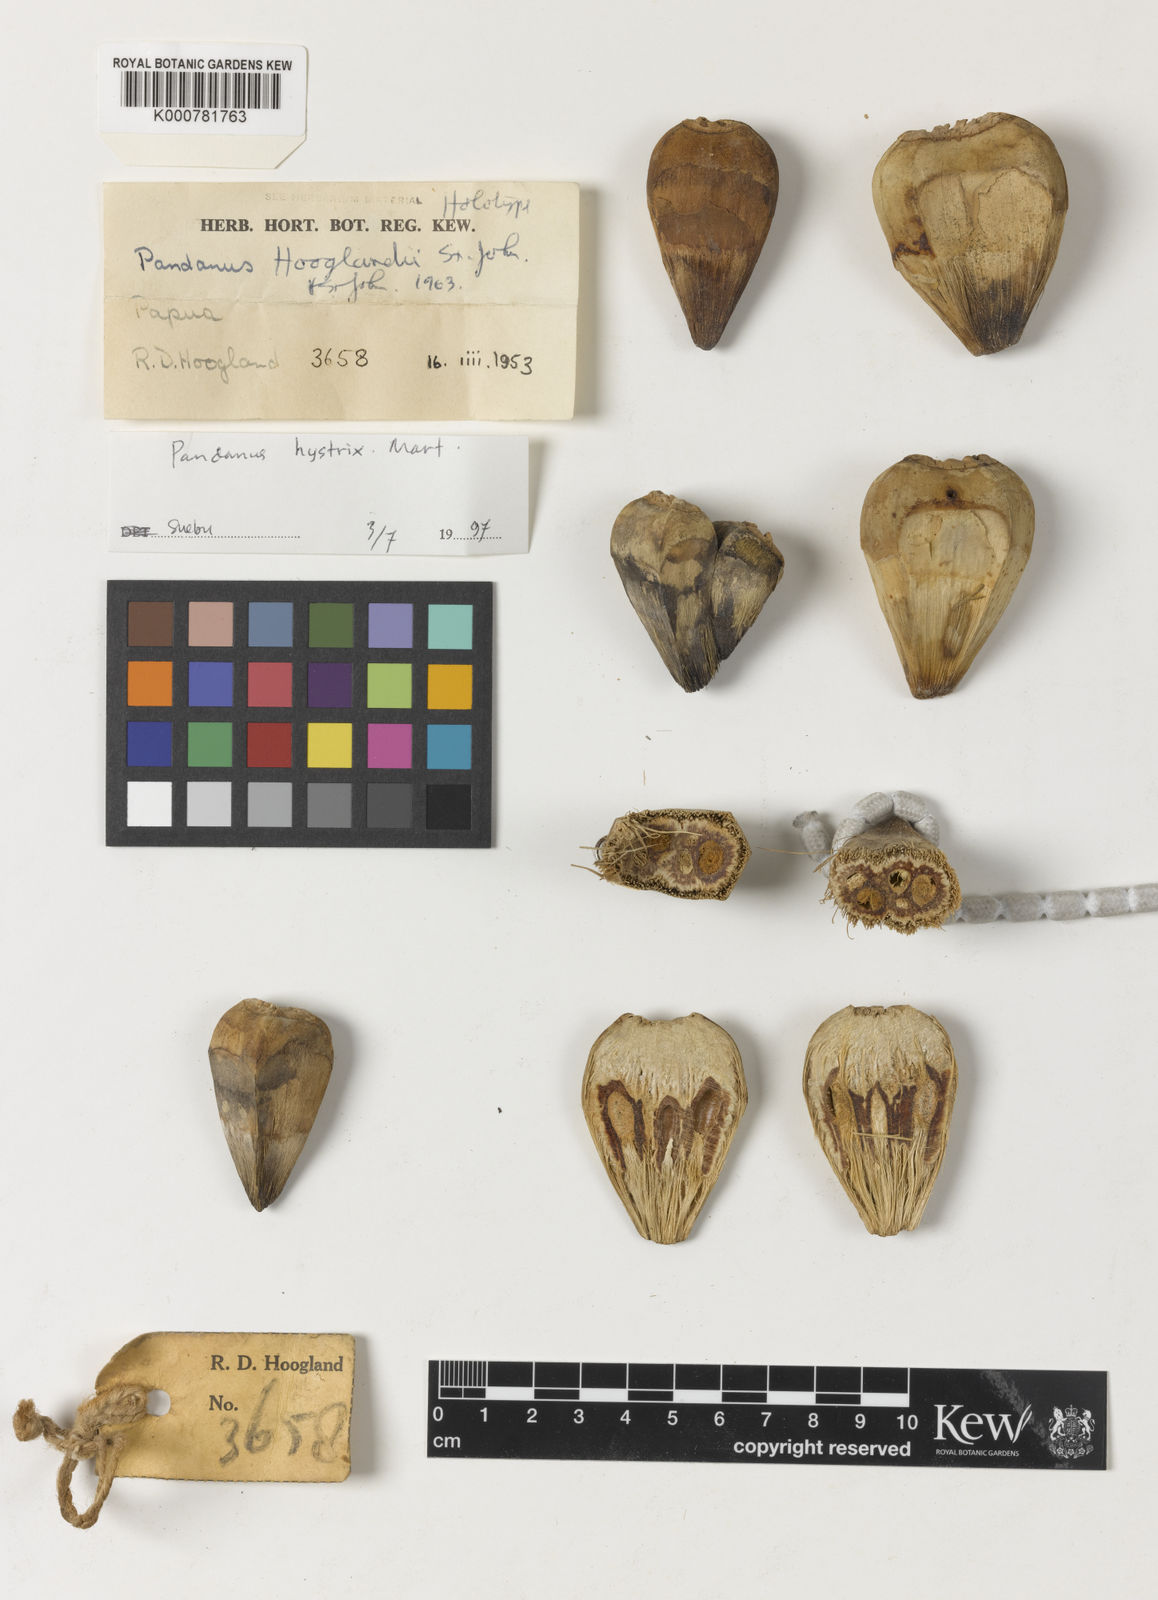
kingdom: Plantae
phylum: Tracheophyta
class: Liliopsida
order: Pandanales
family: Pandanaceae
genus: Pandanus
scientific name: Pandanus hooglandii
